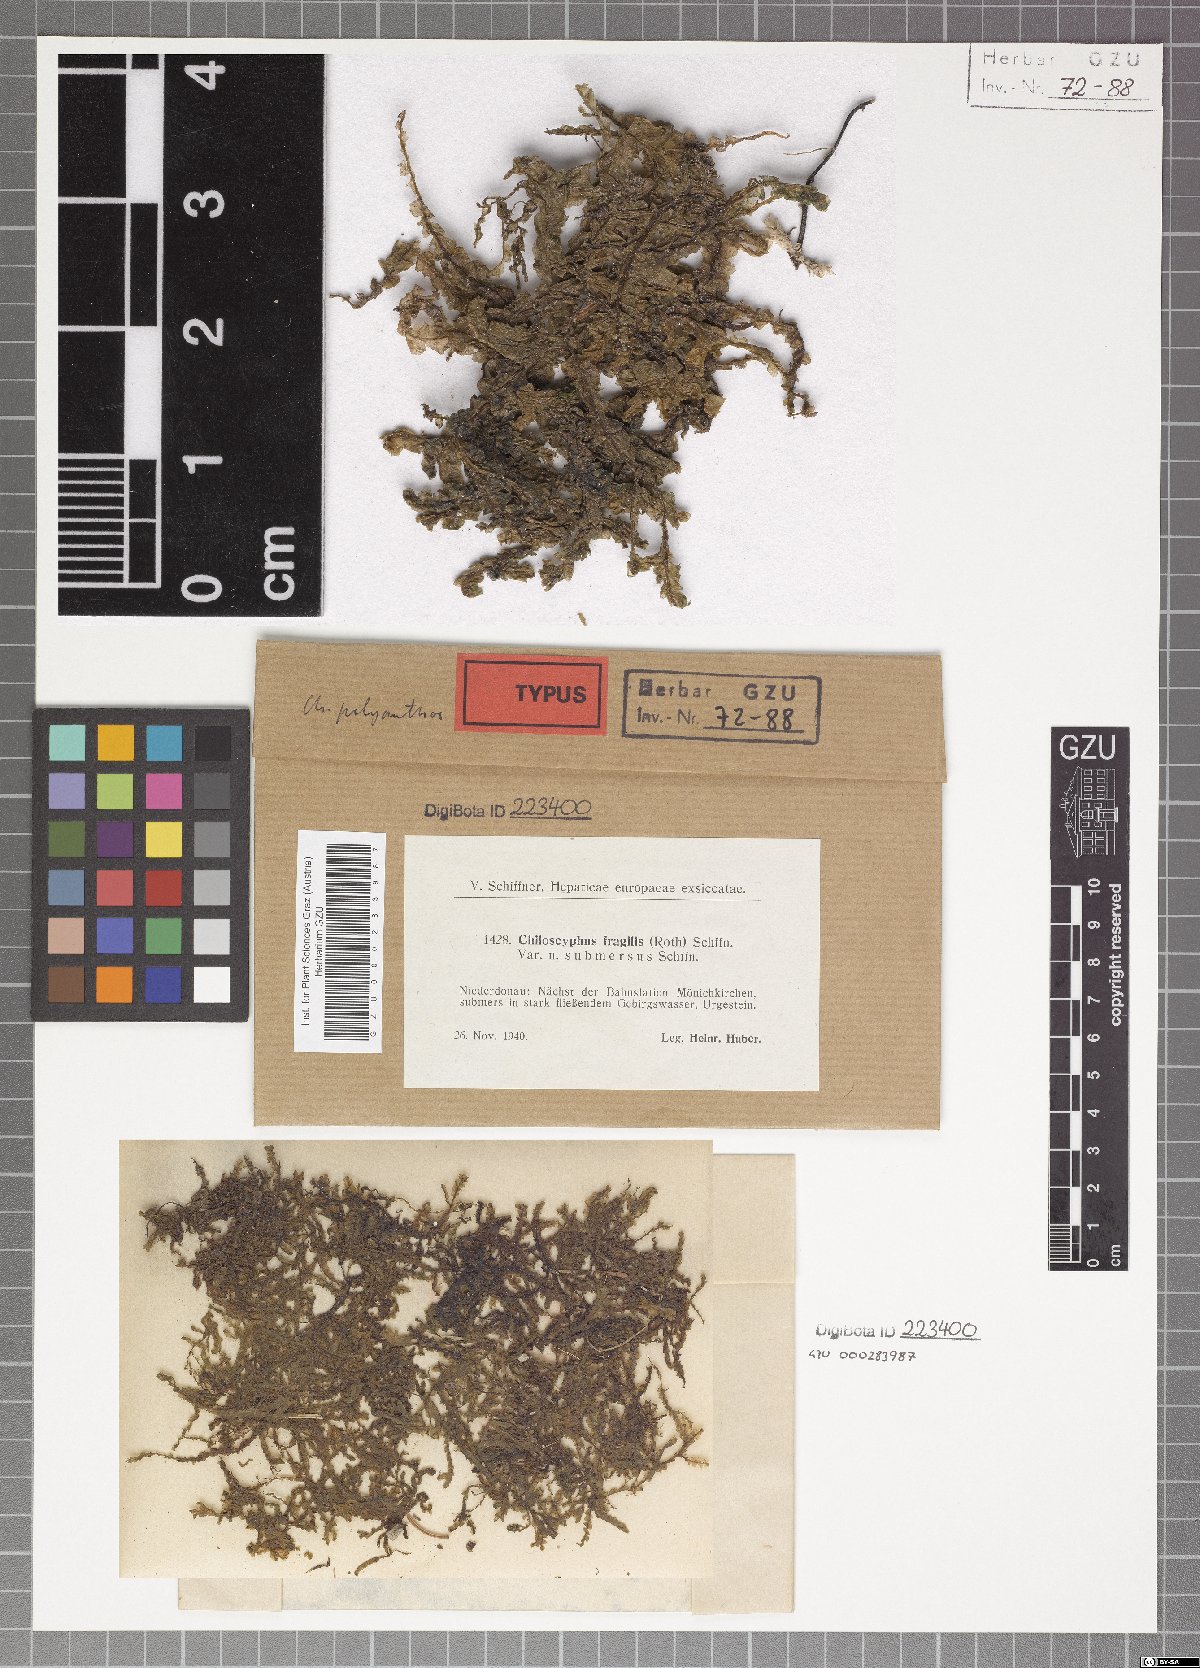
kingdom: Plantae
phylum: Marchantiophyta
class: Jungermanniopsida
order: Jungermanniales
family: Lophocoleaceae
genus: Chiloscyphus
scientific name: Chiloscyphus pallescens
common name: St winifrid's other moss
